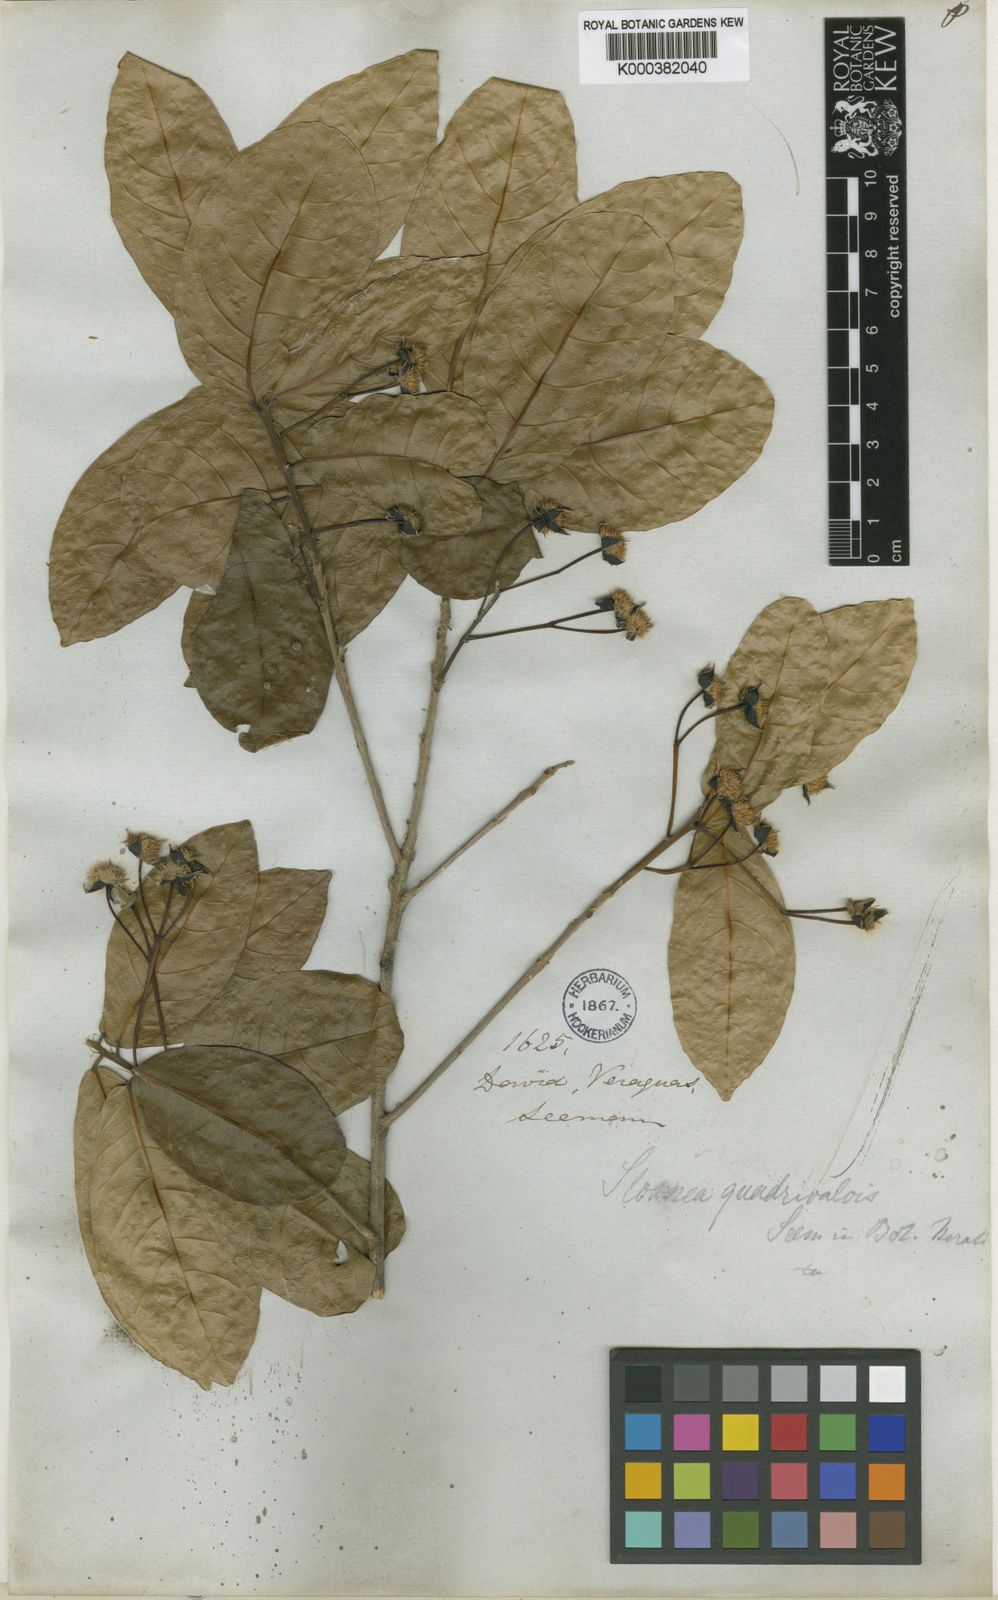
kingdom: Plantae
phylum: Tracheophyta
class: Magnoliopsida
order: Oxalidales
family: Elaeocarpaceae
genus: Sloanea
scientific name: Sloanea
